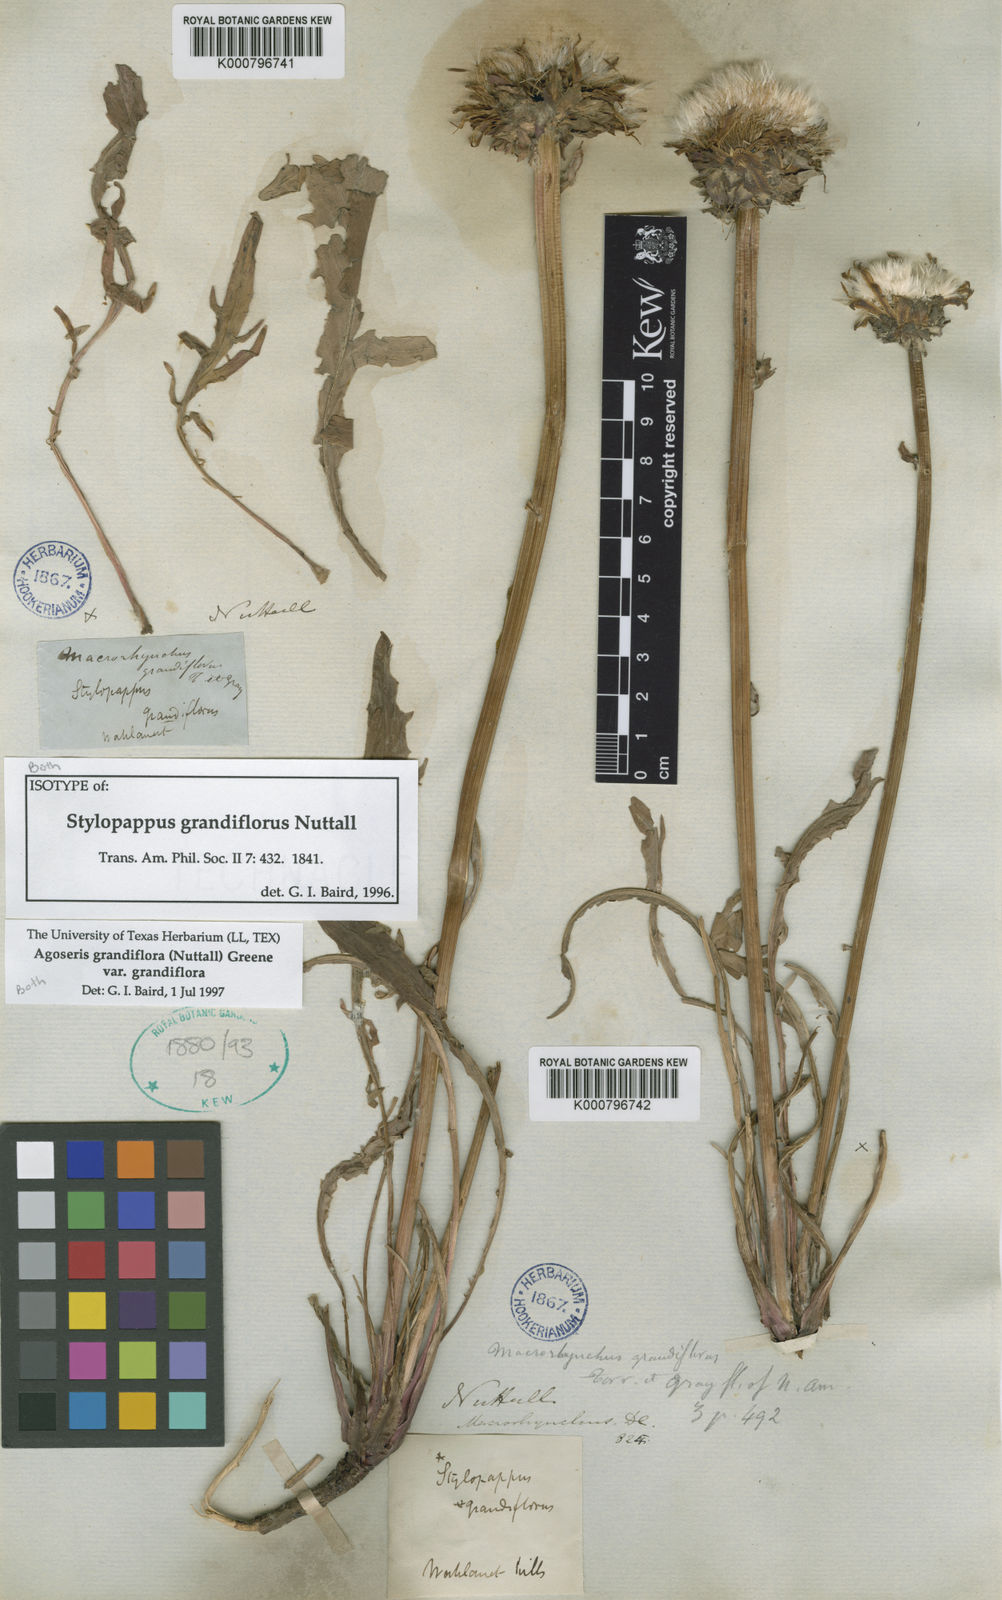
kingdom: Plantae
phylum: Tracheophyta
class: Magnoliopsida
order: Asterales
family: Asteraceae
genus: Agoseris
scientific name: Agoseris grandiflora
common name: Grassland agoseris
